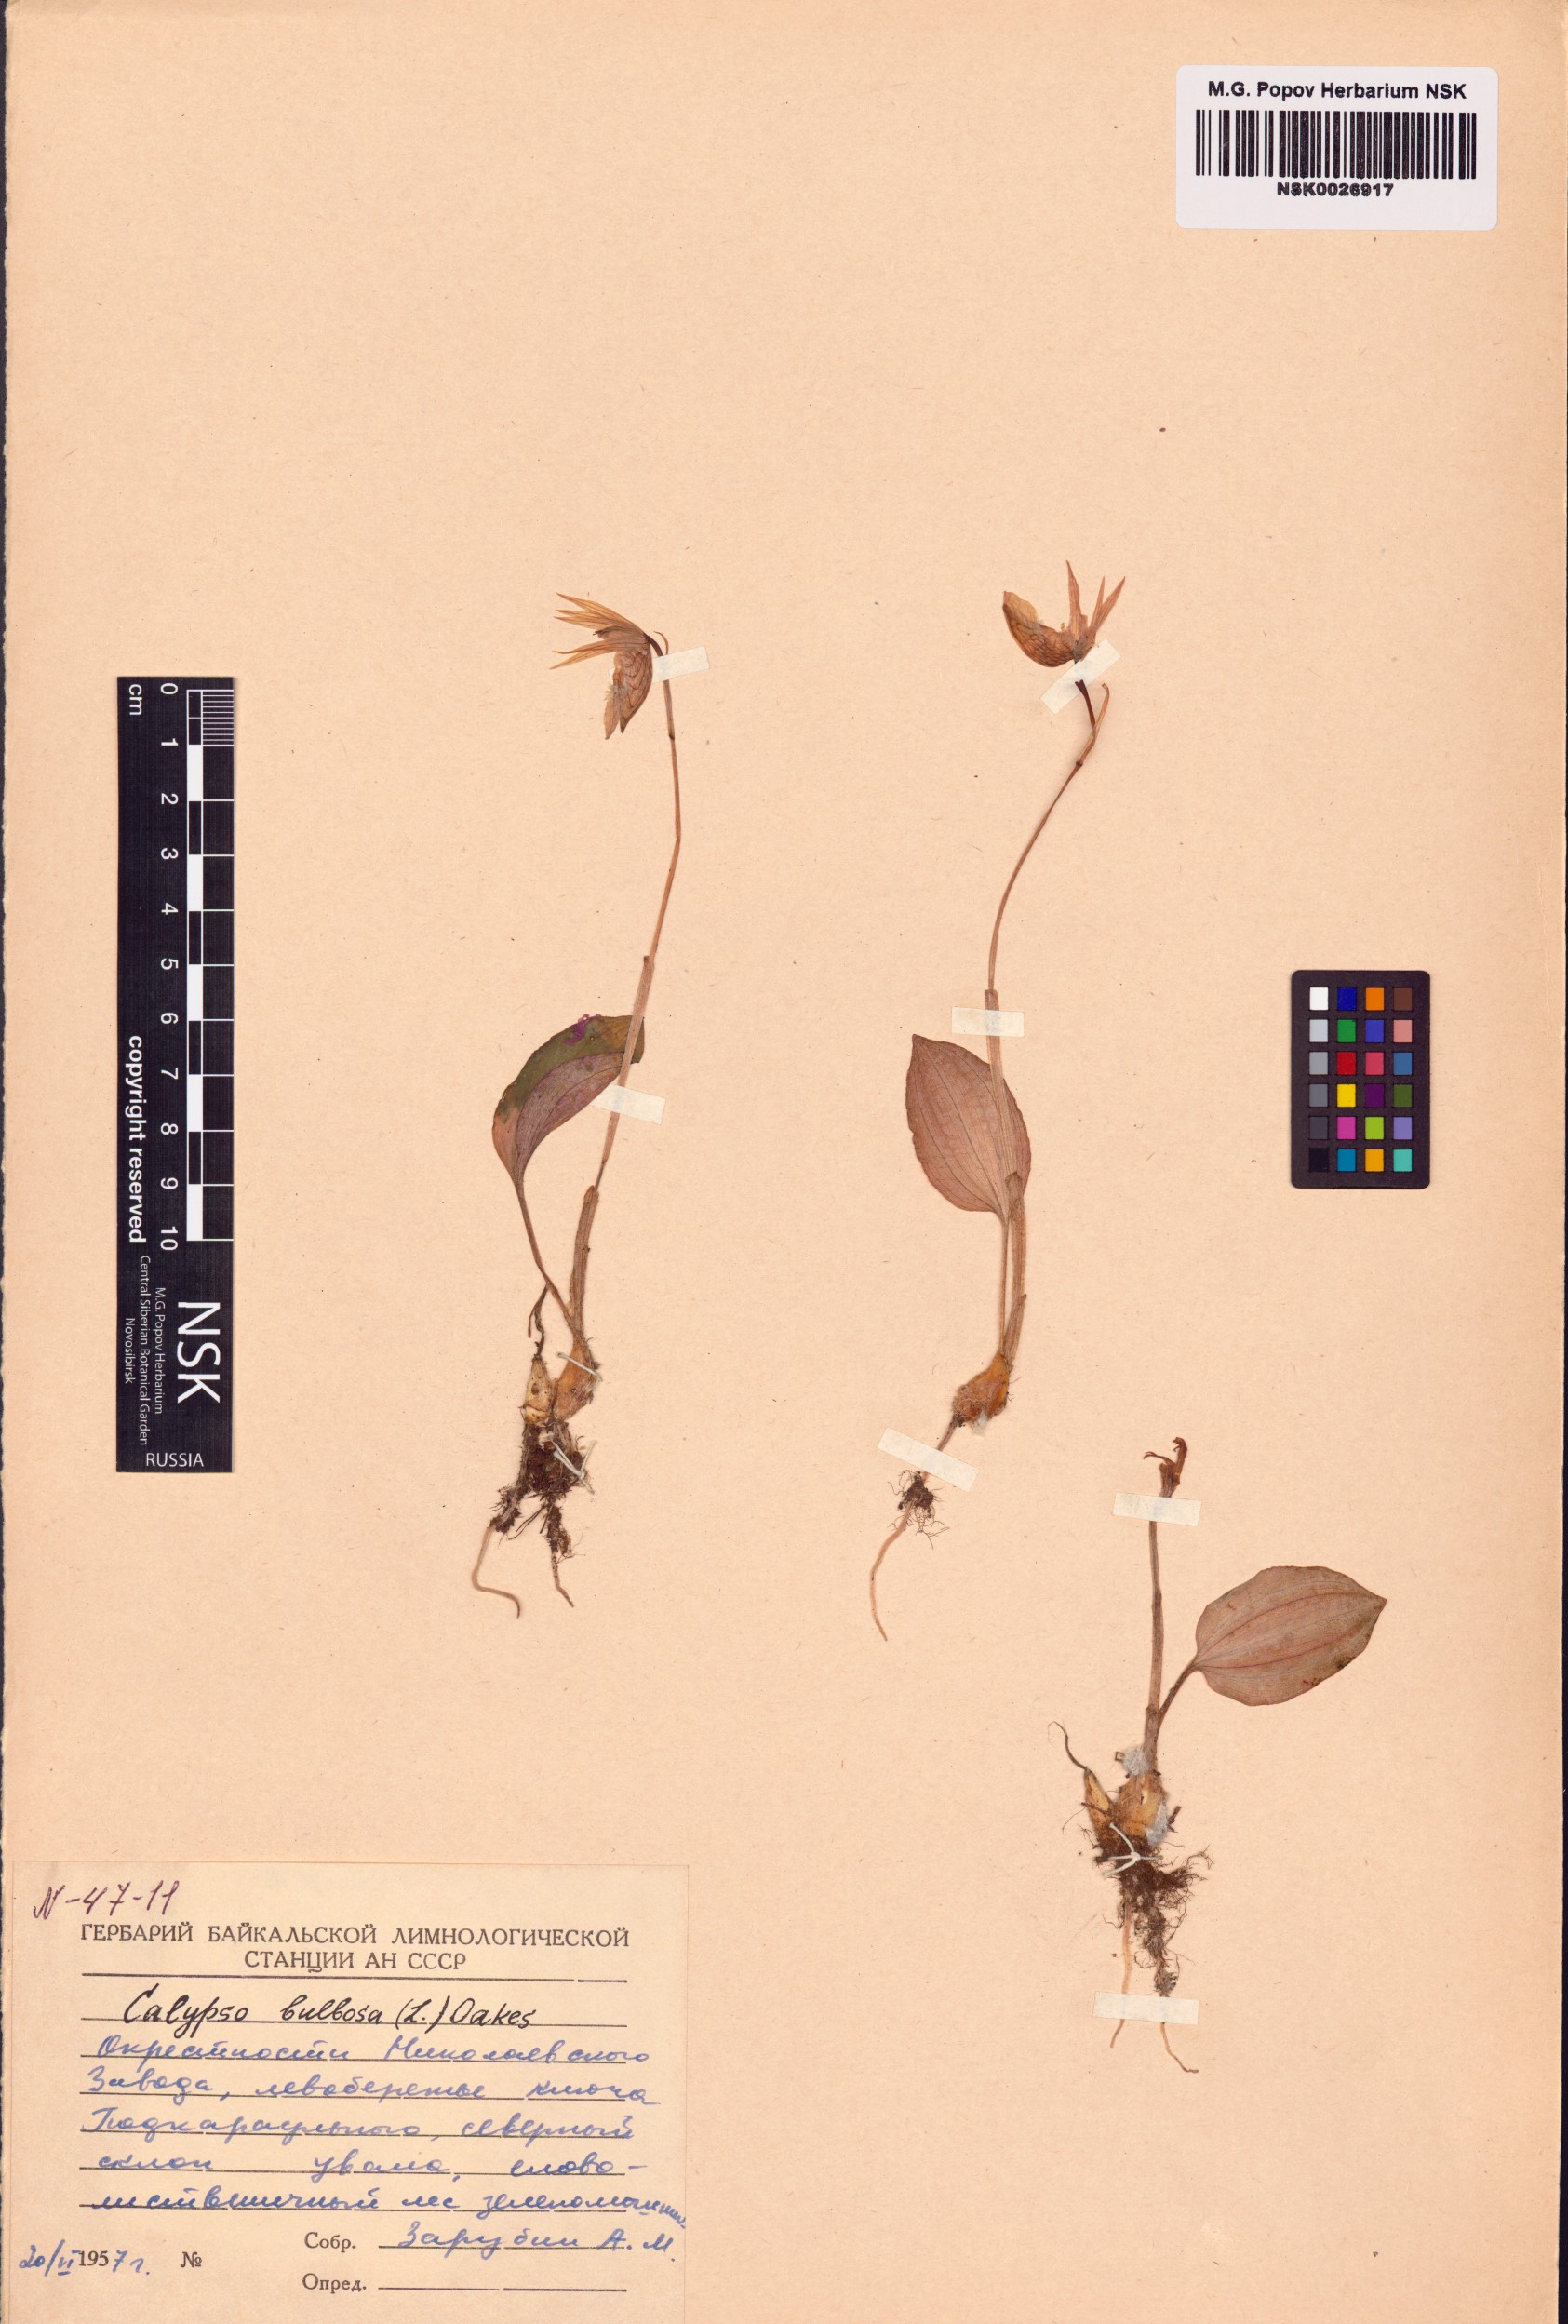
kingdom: Plantae
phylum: Tracheophyta
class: Liliopsida
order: Asparagales
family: Orchidaceae
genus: Calypso
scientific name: Calypso bulbosa
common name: Calypso
